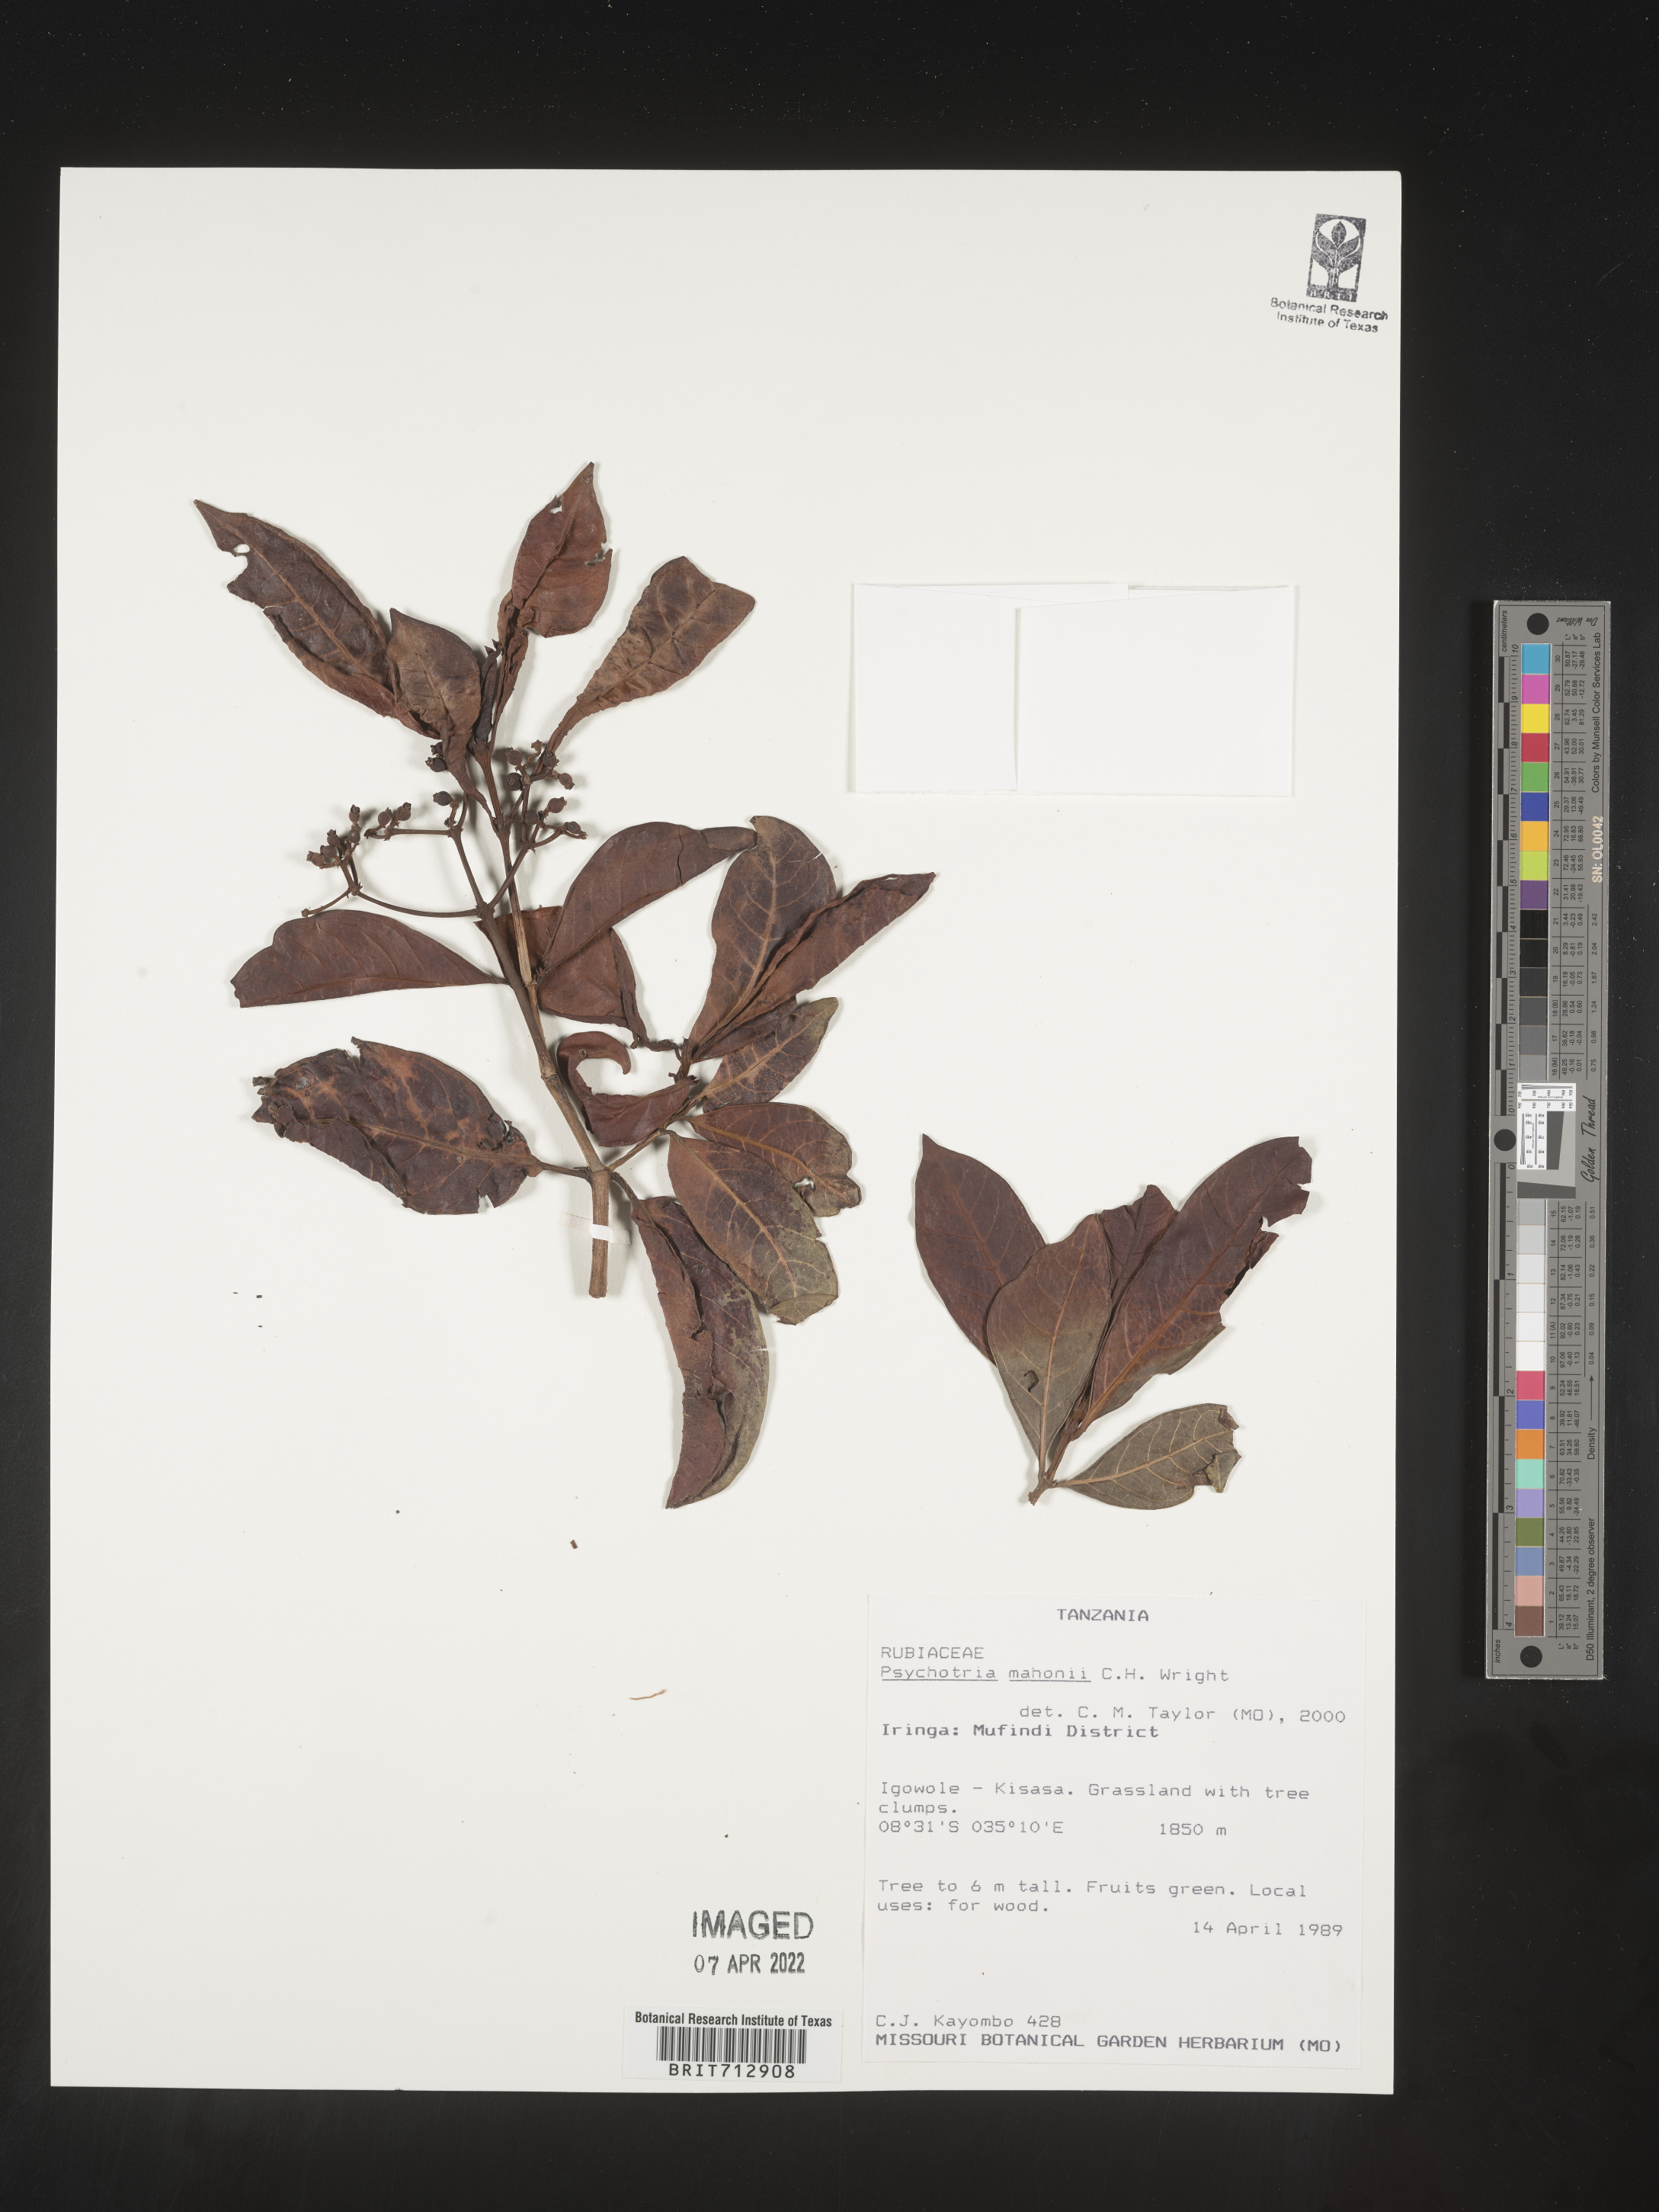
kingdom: Plantae
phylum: Tracheophyta
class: Magnoliopsida
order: Gentianales
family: Rubiaceae
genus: Psychotria
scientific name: Psychotria mahonii
